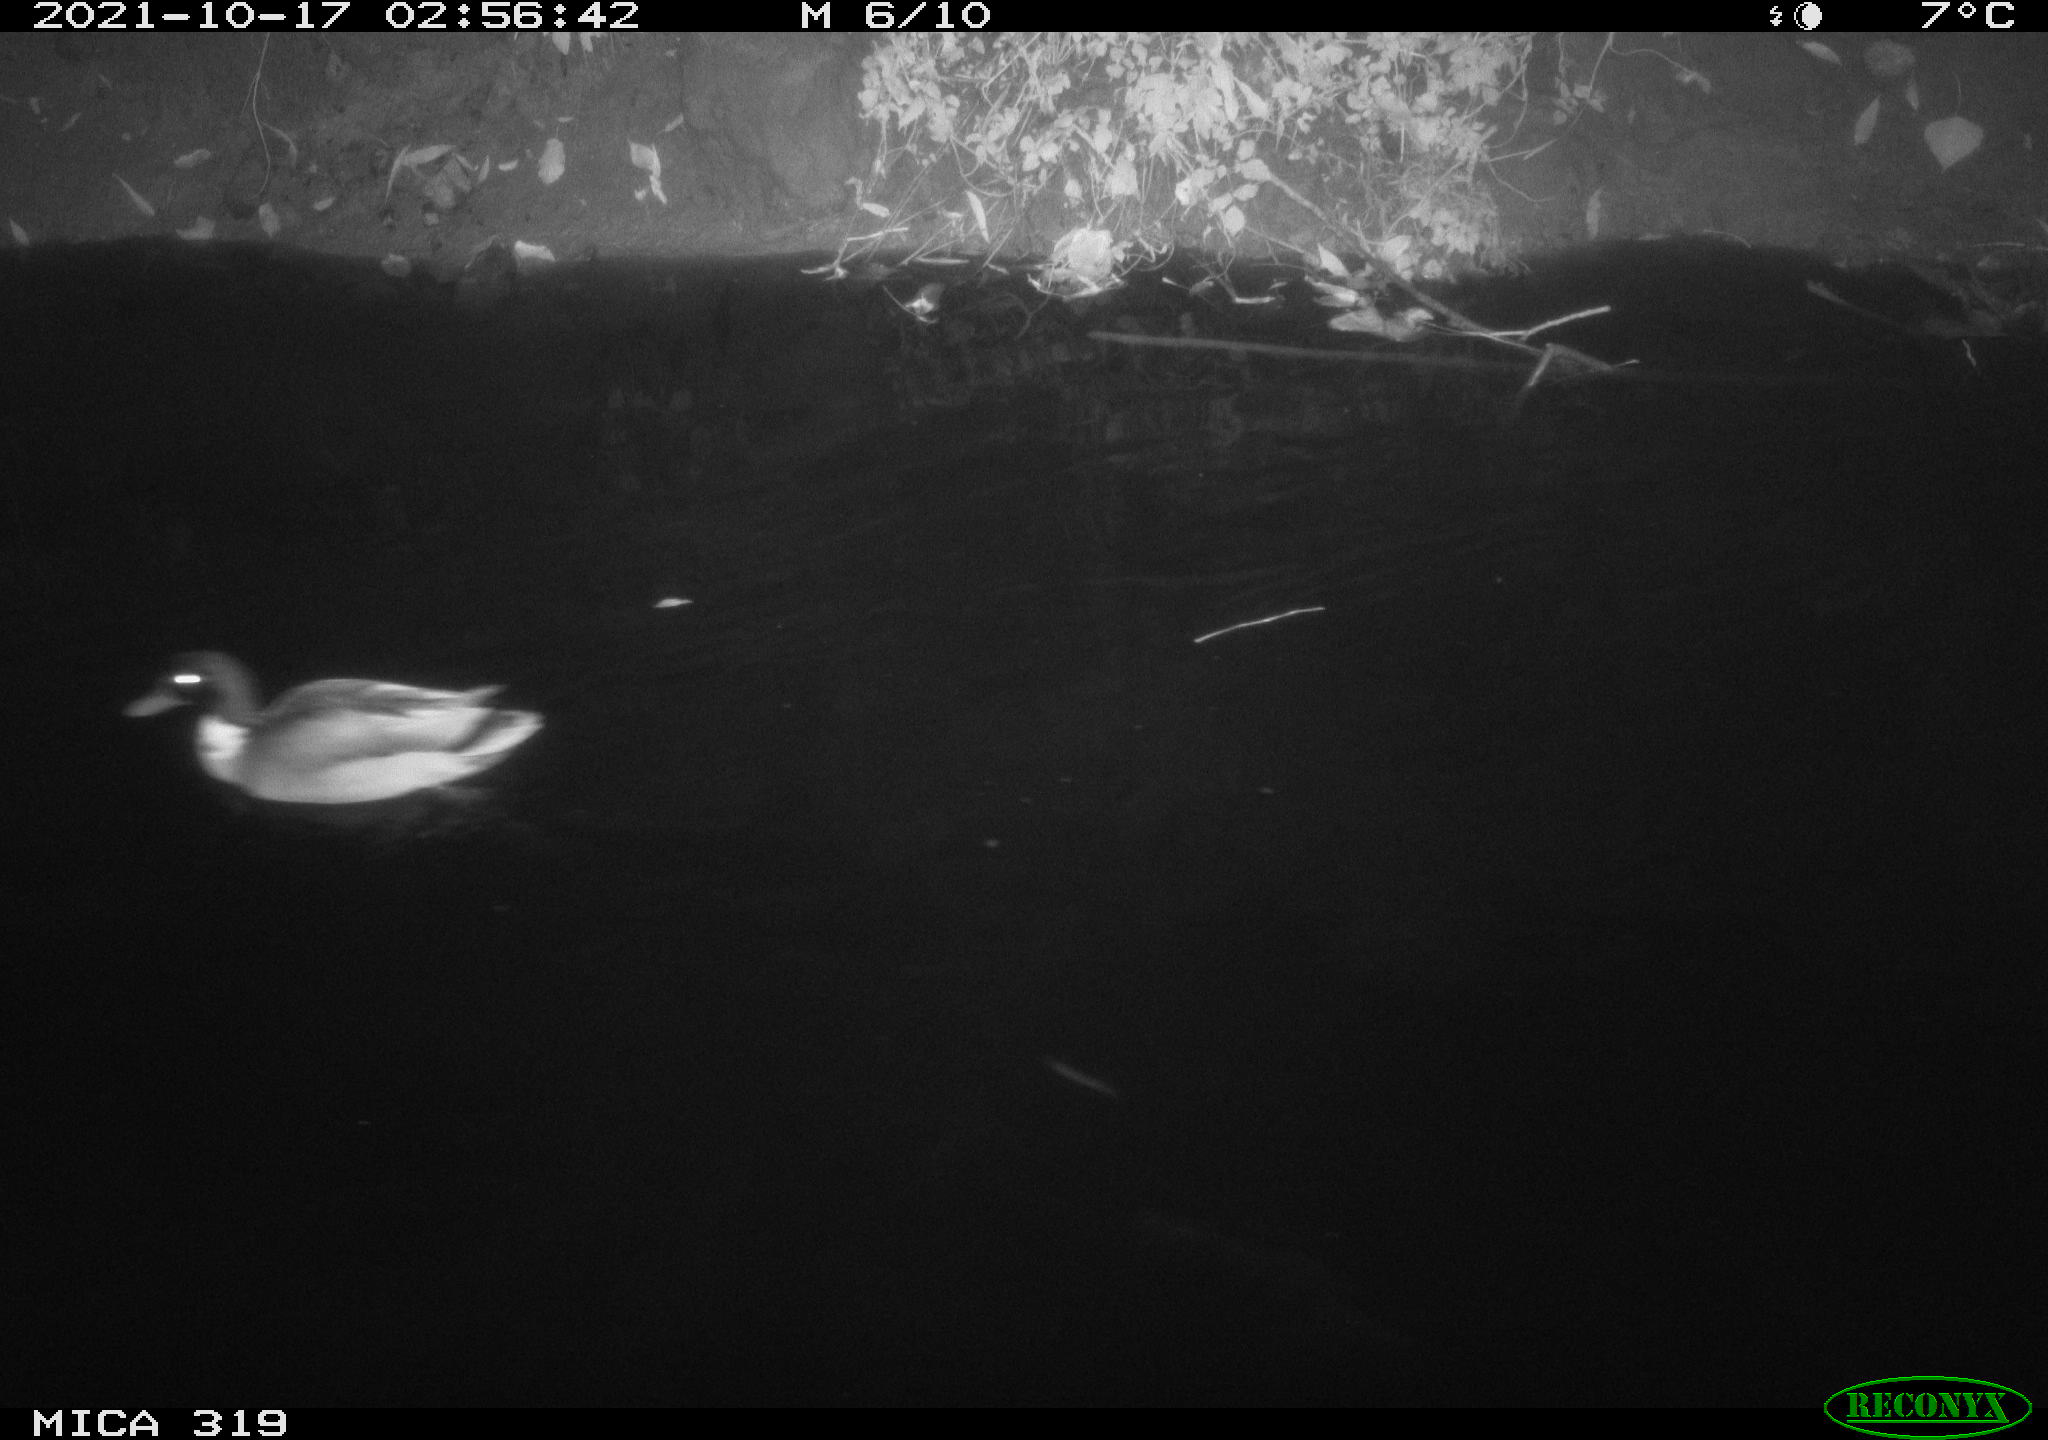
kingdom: Animalia
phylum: Chordata
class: Aves
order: Anseriformes
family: Anatidae
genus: Anas
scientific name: Anas platyrhynchos
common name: Mallard
